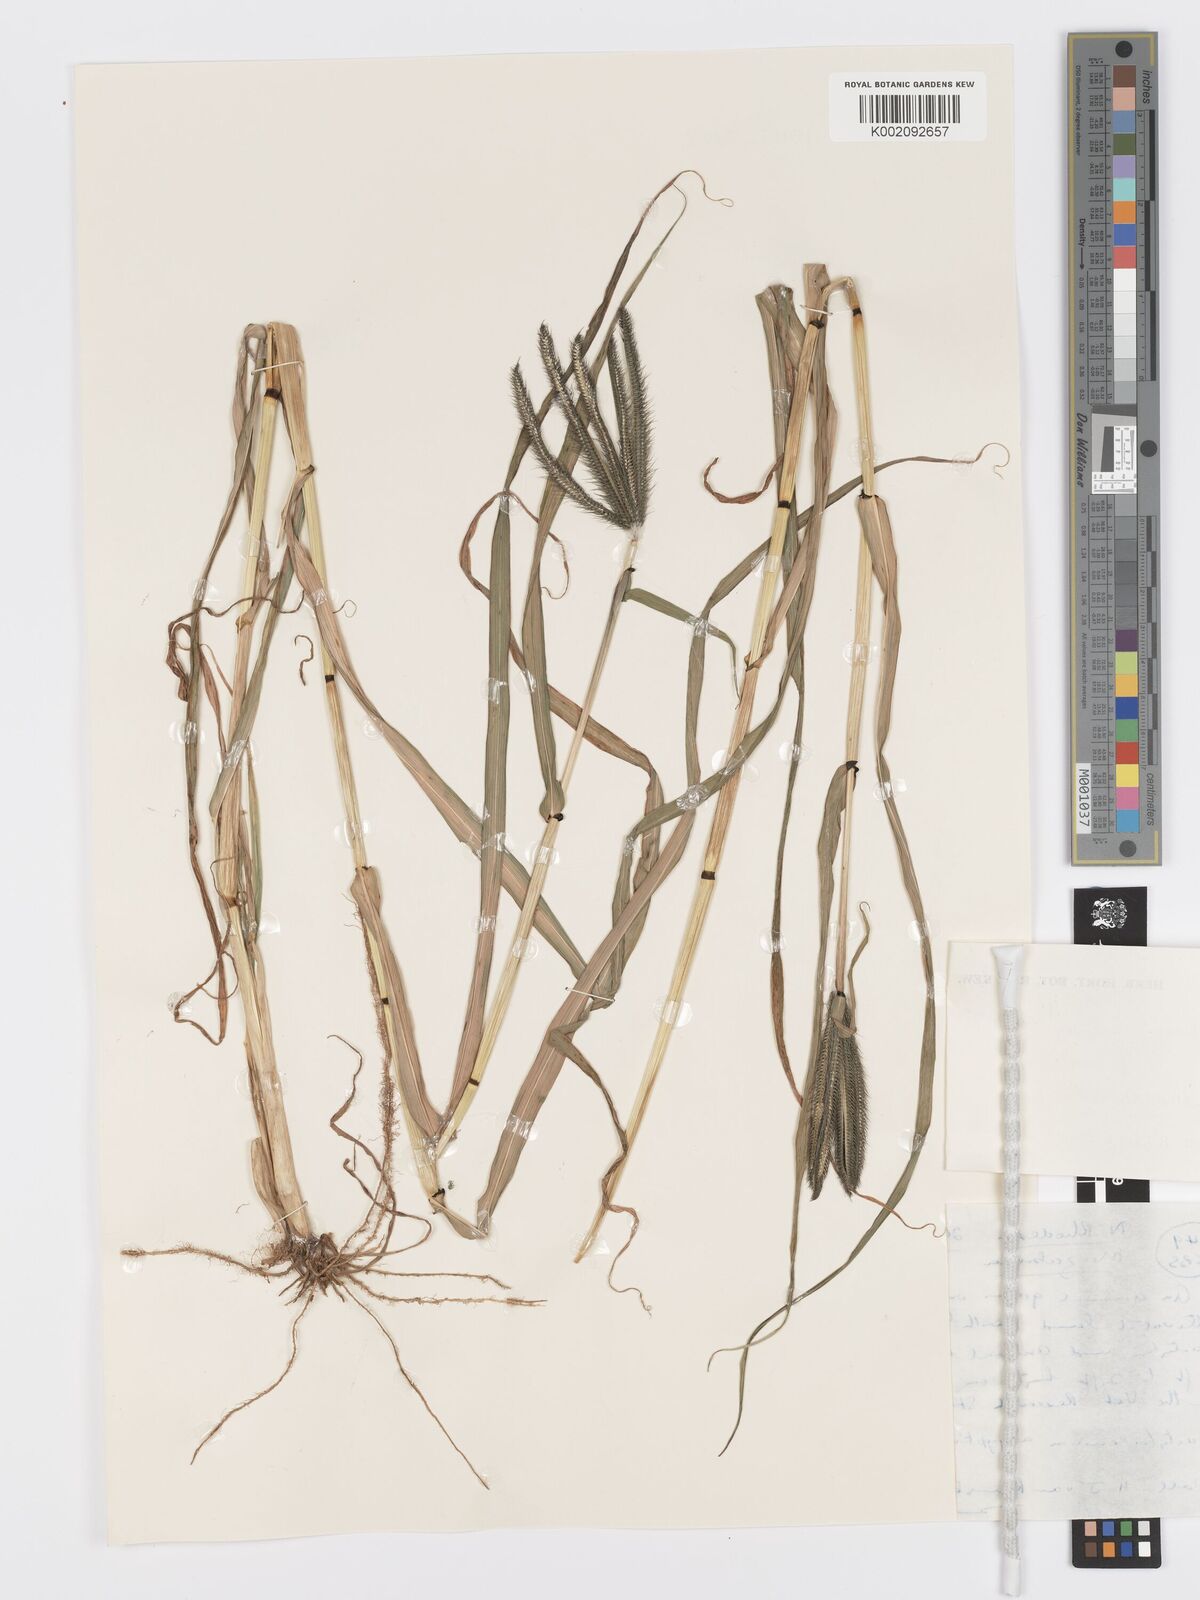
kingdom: Plantae
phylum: Tracheophyta
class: Liliopsida
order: Poales
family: Poaceae
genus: Dactyloctenium
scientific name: Dactyloctenium giganteum
